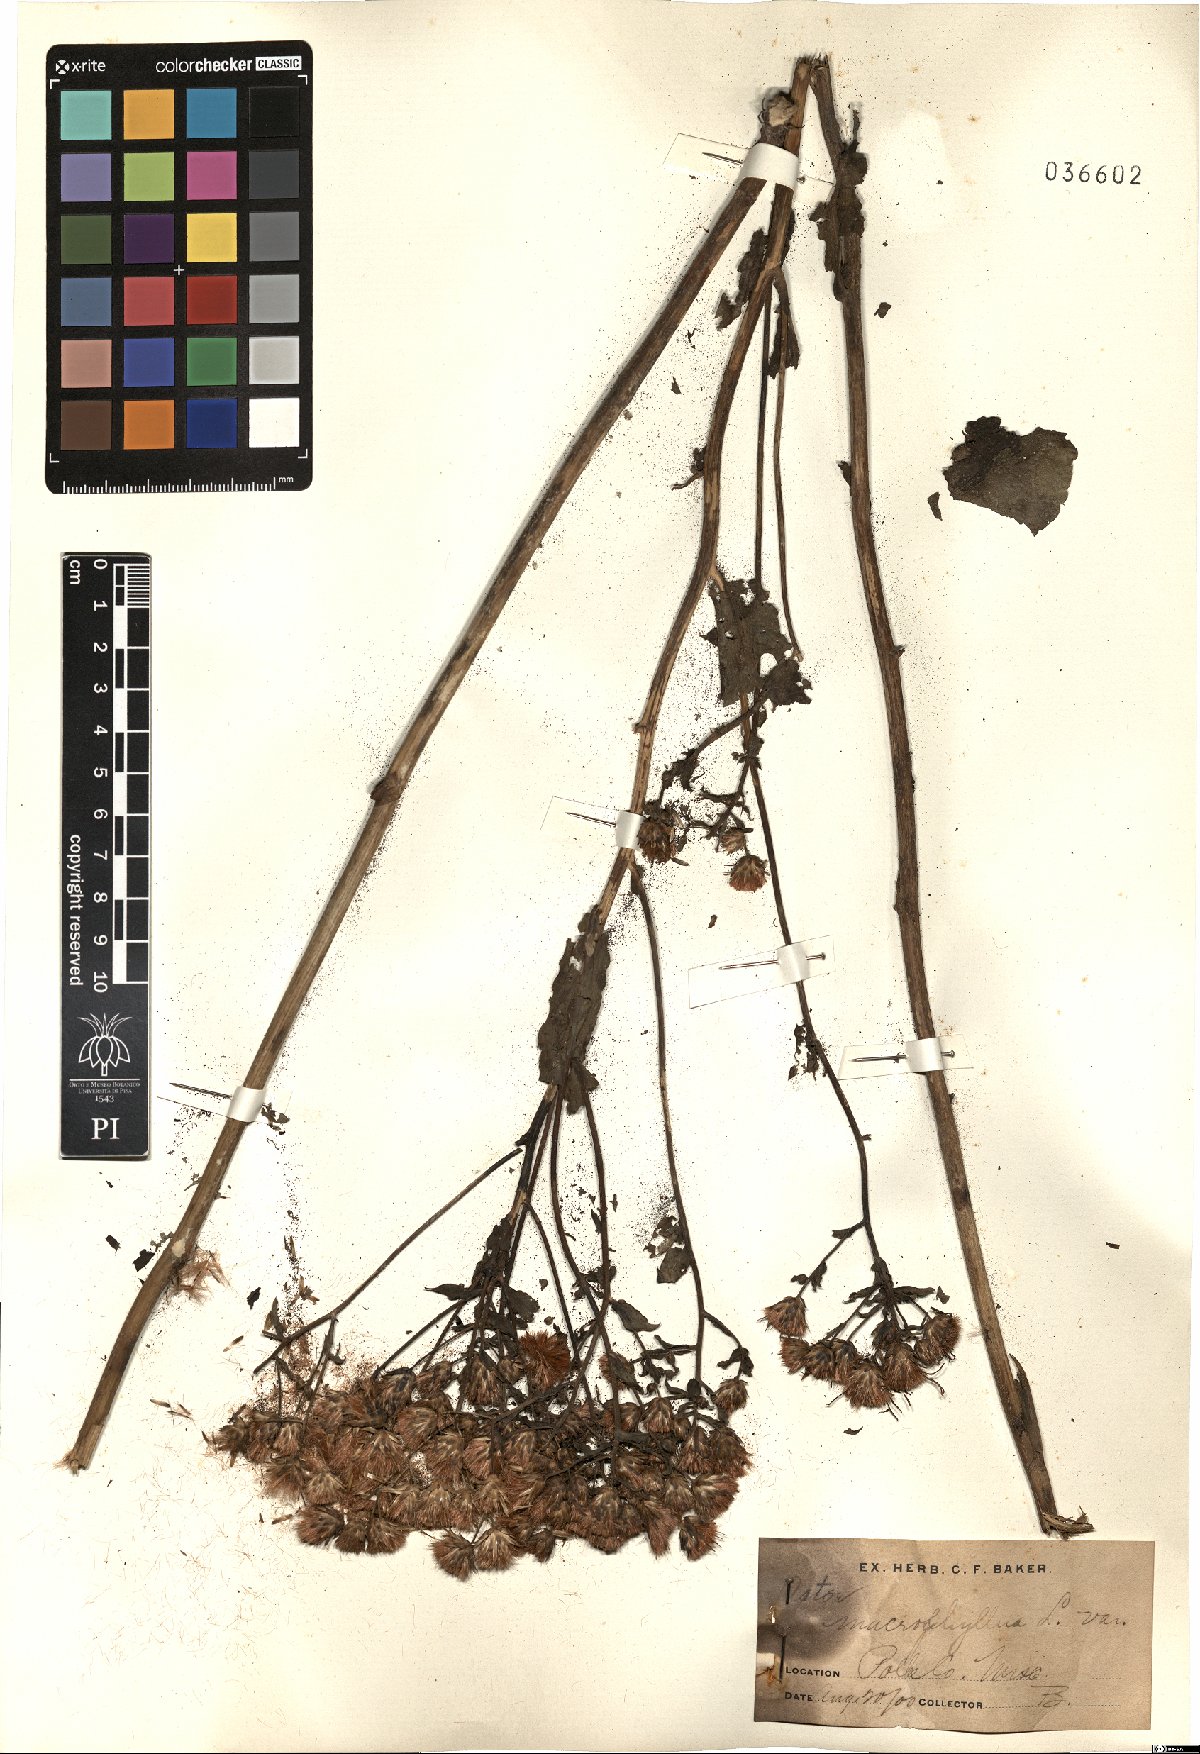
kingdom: Plantae
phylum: Tracheophyta
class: Magnoliopsida
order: Asterales
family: Asteraceae
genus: Eurybia
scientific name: Eurybia macrophylla
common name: Big-leaved aster
